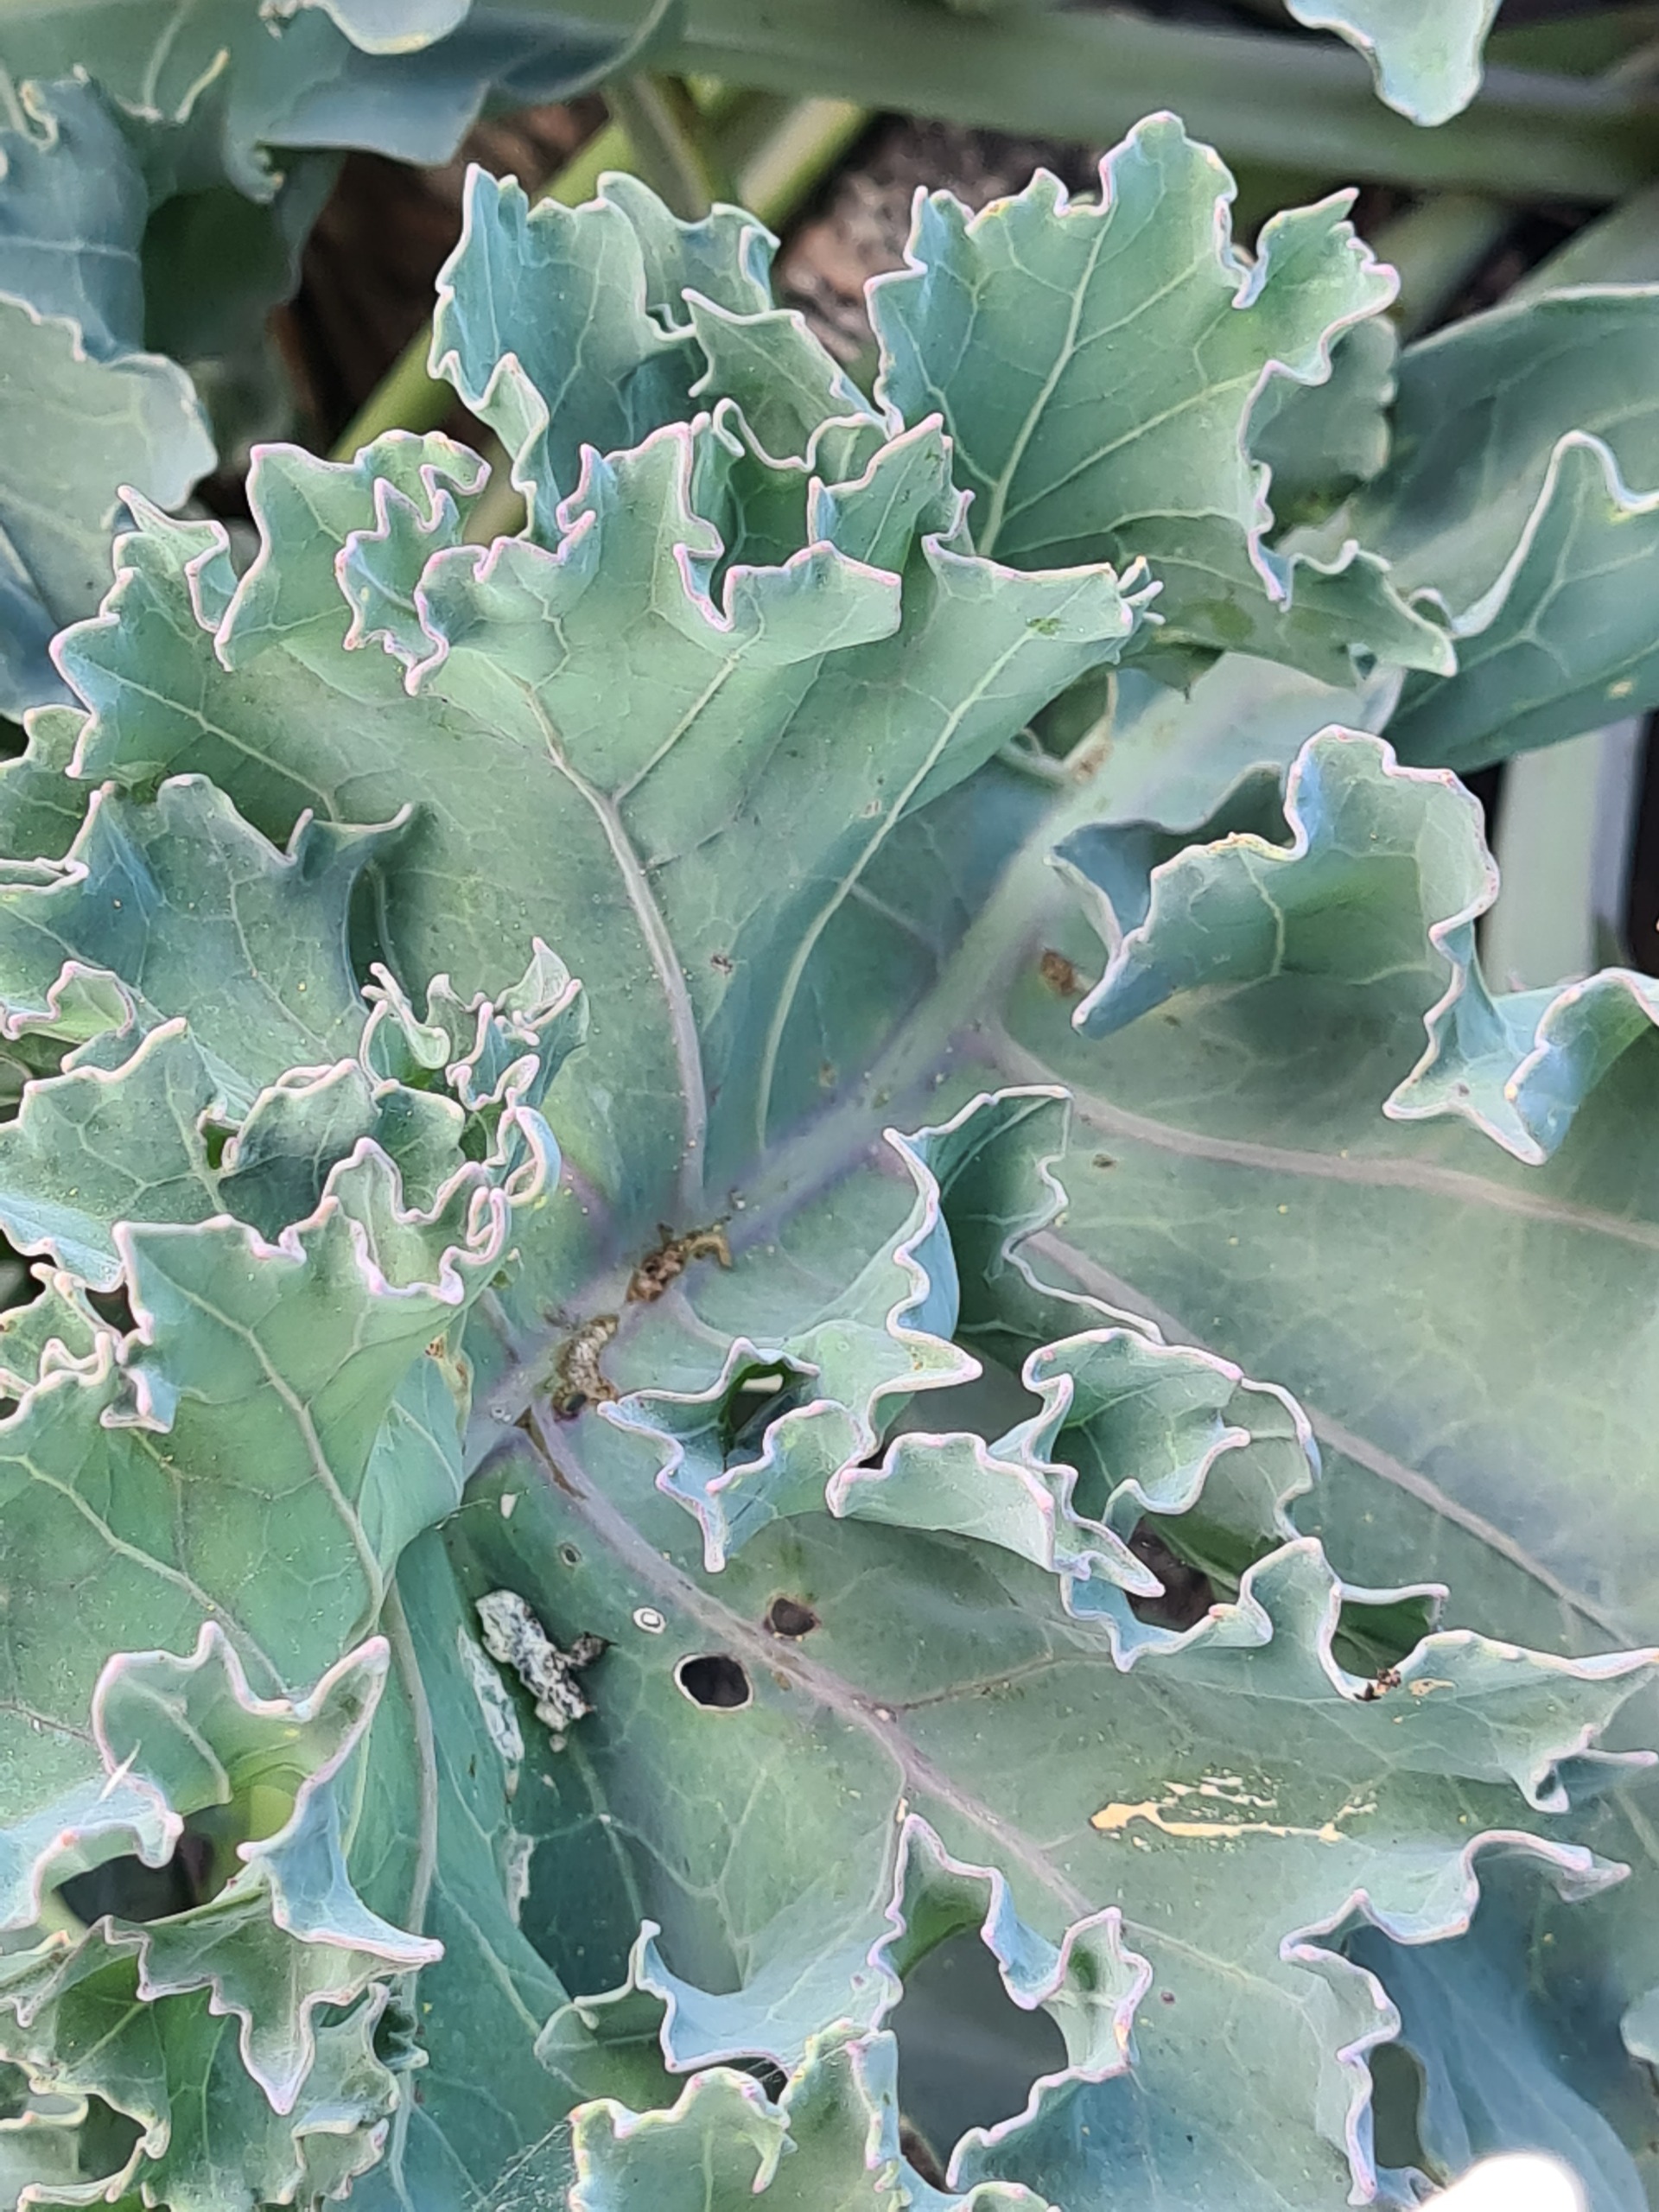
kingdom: Plantae
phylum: Tracheophyta
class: Magnoliopsida
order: Brassicales
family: Brassicaceae
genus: Crambe
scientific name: Crambe maritima
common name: Strandkål
